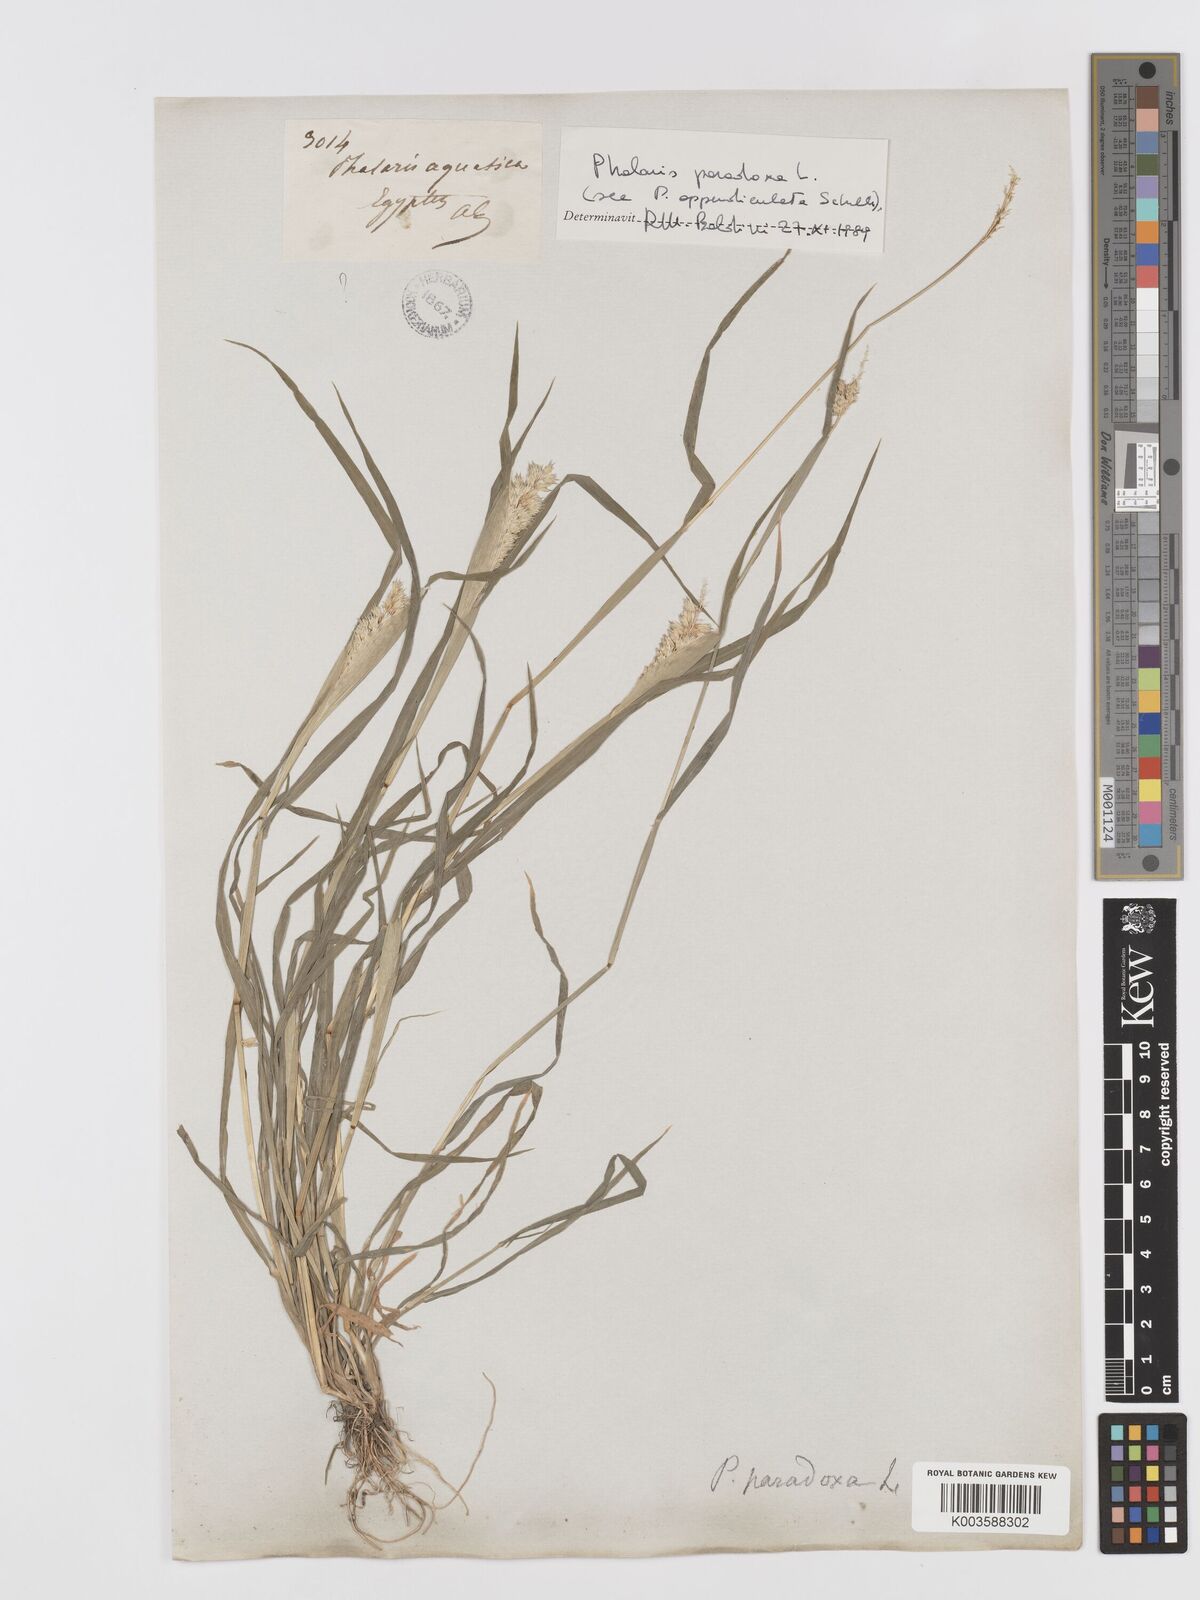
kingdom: Plantae
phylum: Tracheophyta
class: Liliopsida
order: Poales
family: Poaceae
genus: Phalaris
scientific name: Phalaris paradoxa
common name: Awned canary-grass
